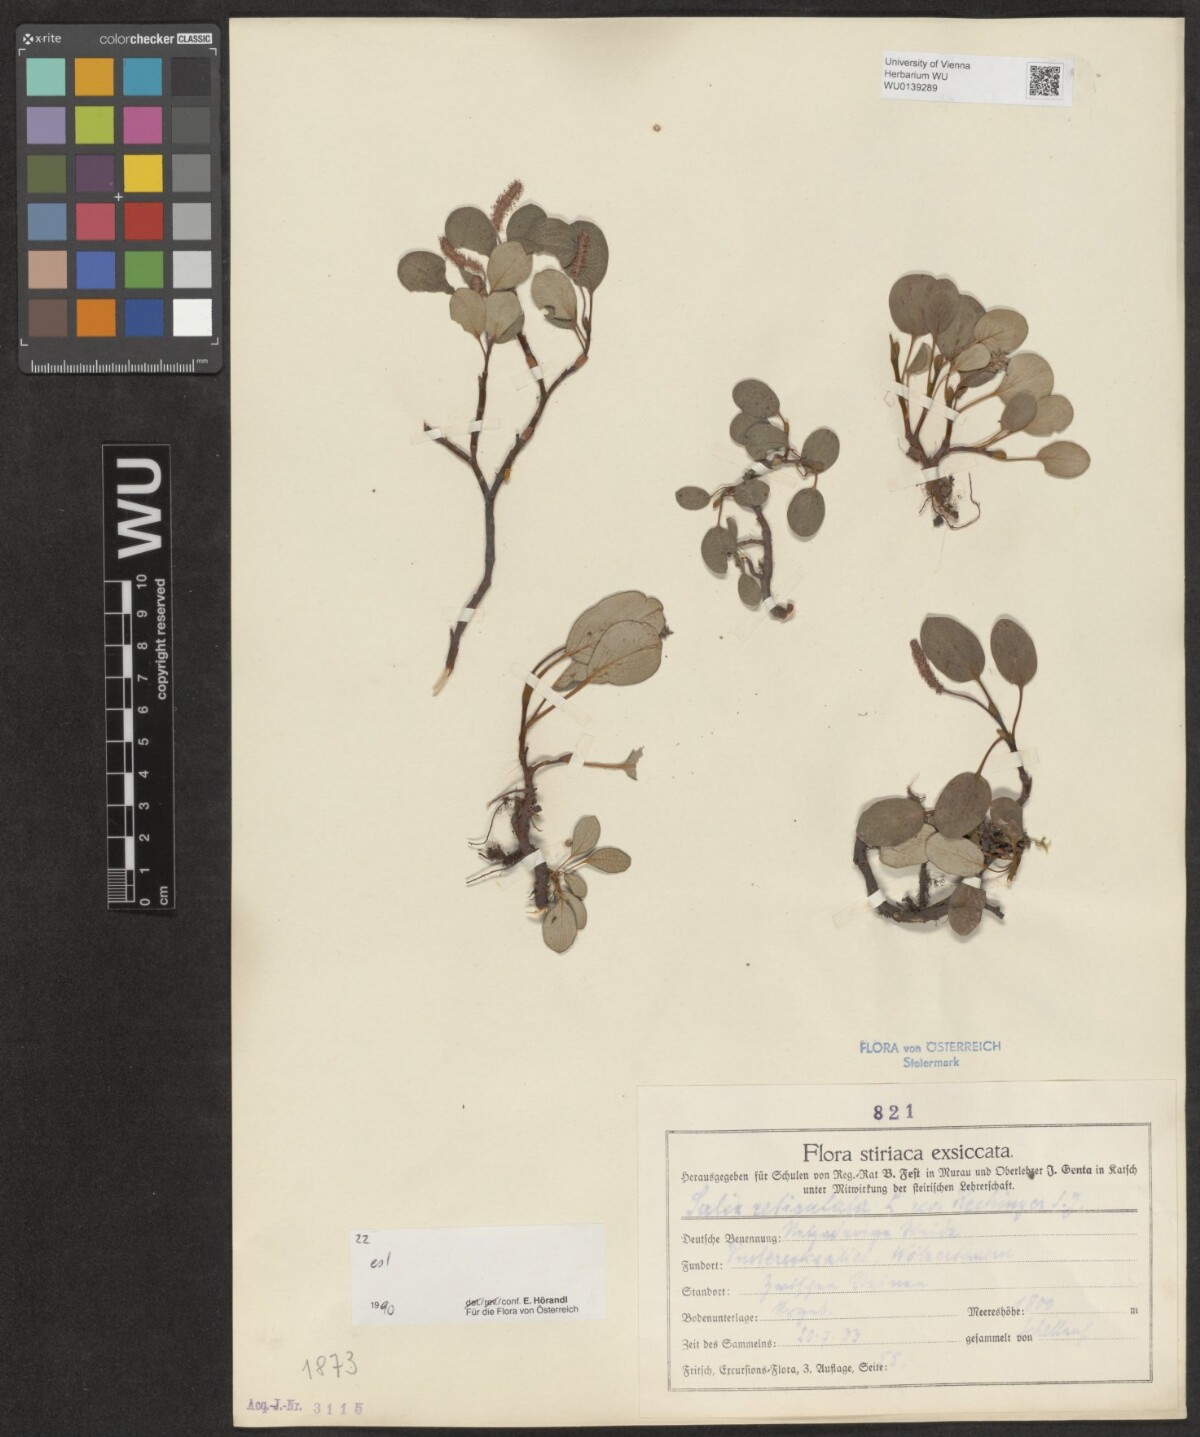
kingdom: Plantae
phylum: Tracheophyta
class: Magnoliopsida
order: Malpighiales
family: Salicaceae
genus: Salix
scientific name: Salix reticulata
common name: Net-leaved willow
